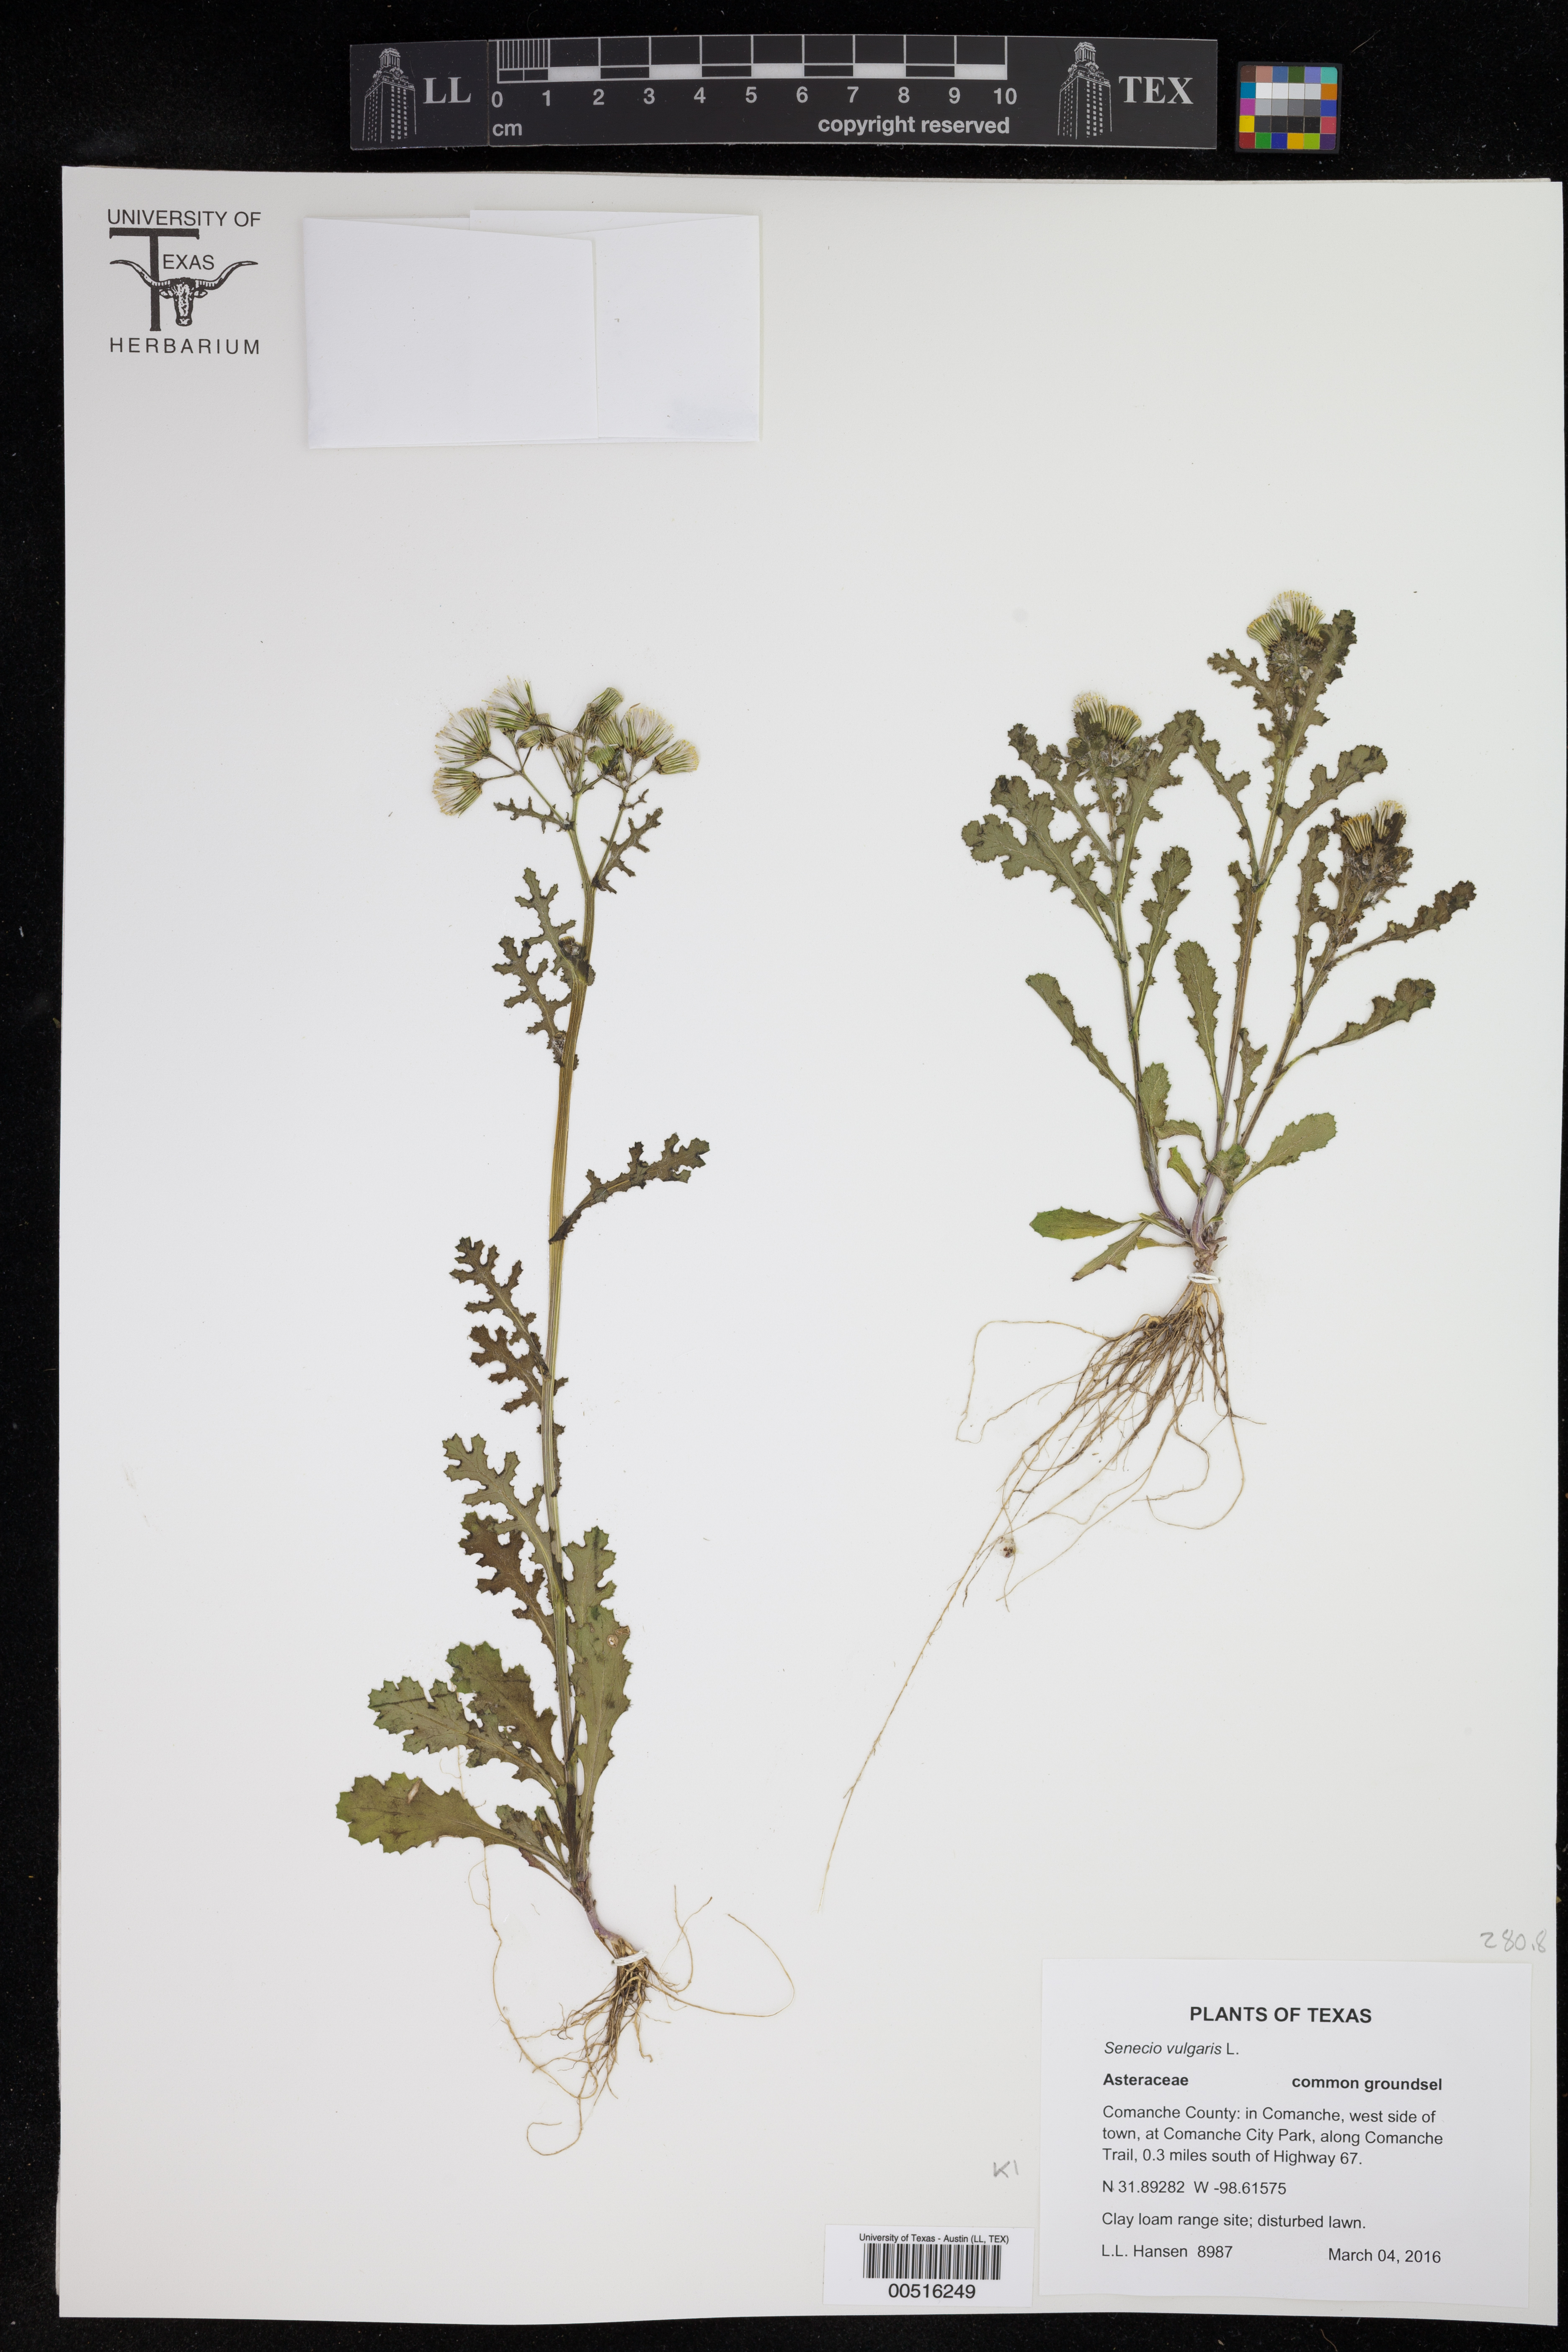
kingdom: Plantae
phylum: Tracheophyta
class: Magnoliopsida
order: Asterales
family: Asteraceae
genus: Senecio
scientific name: Senecio vulgaris
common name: Old-man-in-the-spring
